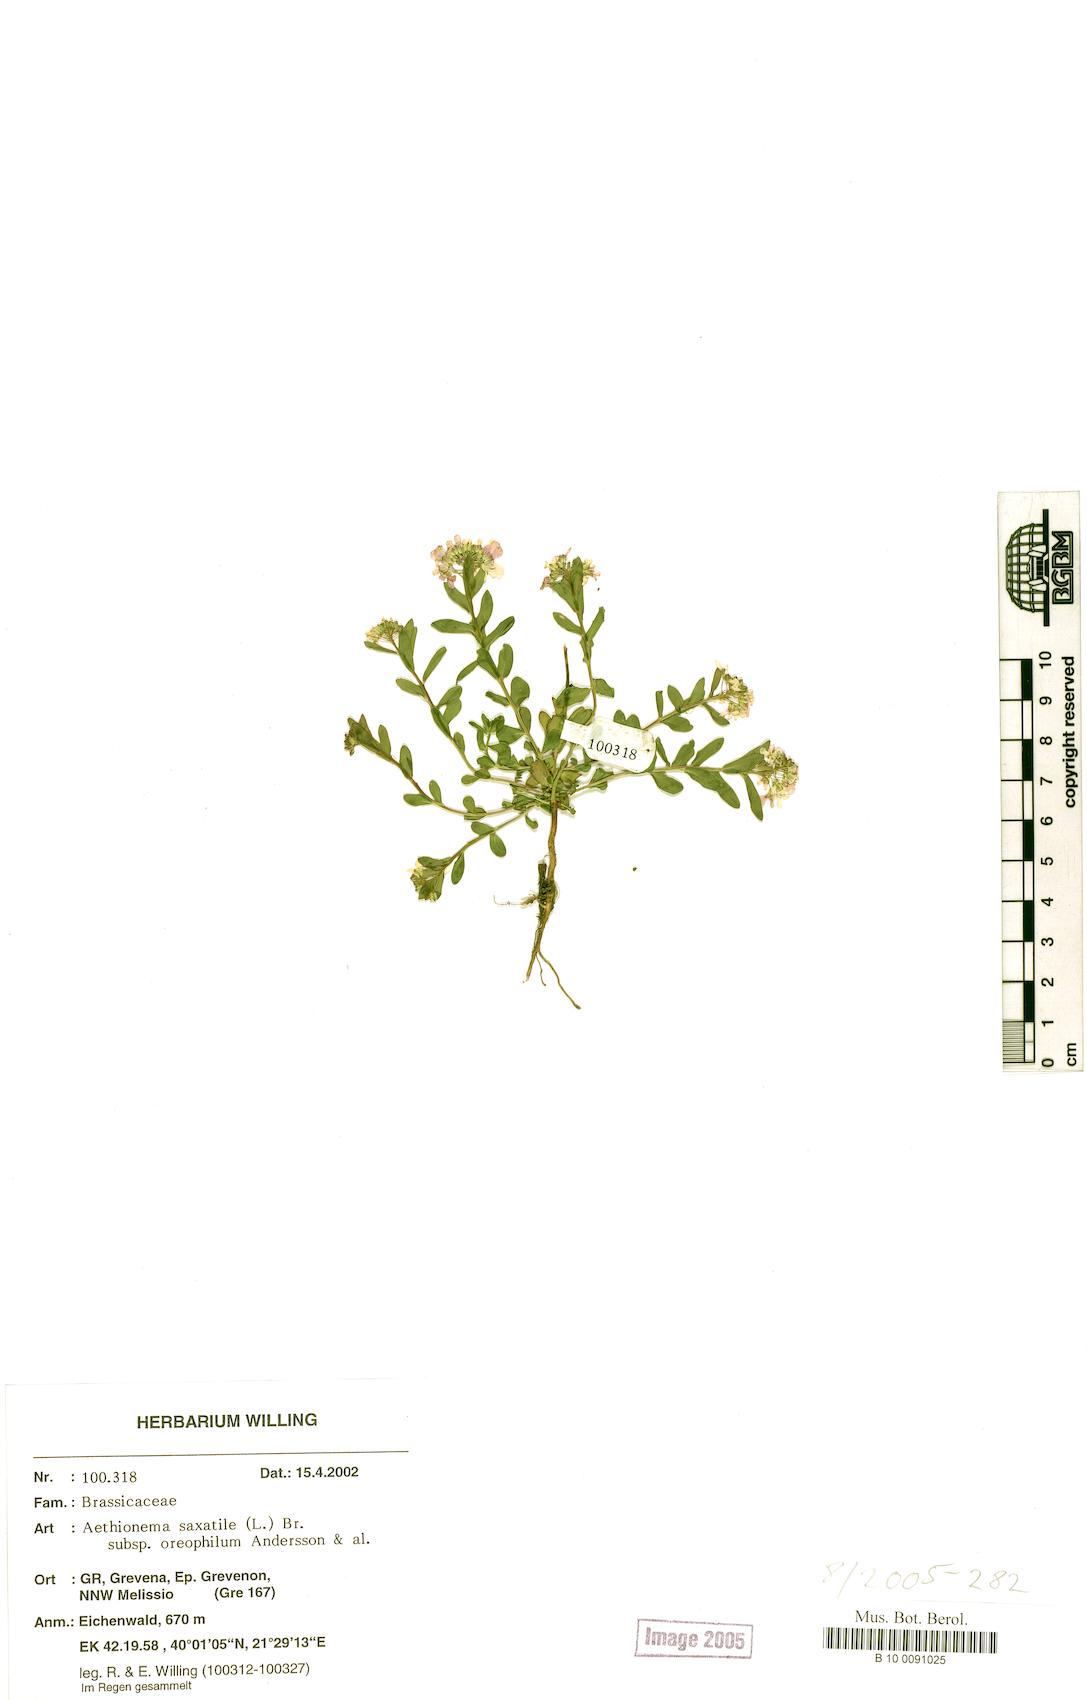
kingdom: Plantae
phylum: Tracheophyta
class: Magnoliopsida
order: Brassicales
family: Brassicaceae
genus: Aethionema
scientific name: Aethionema saxatile
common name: Burnt candytuft
